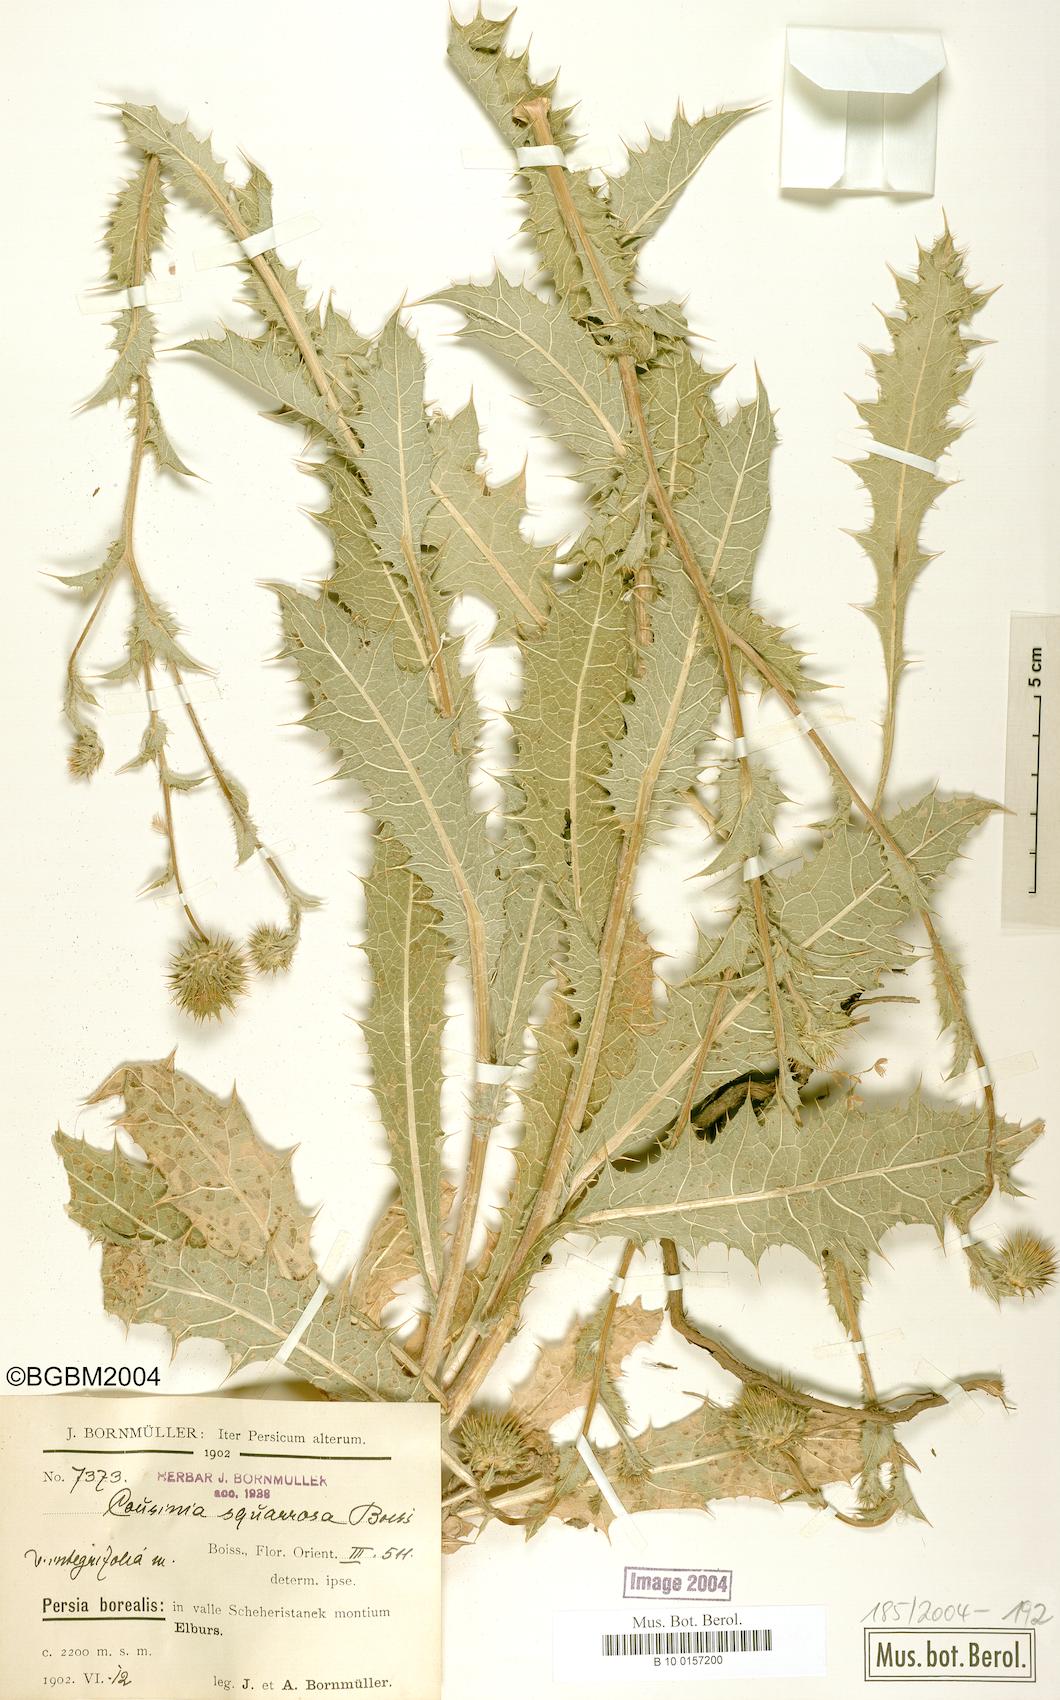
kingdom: Plantae
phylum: Tracheophyta
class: Magnoliopsida
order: Asterales
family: Asteraceae
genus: Cousinia
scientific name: Cousinia
